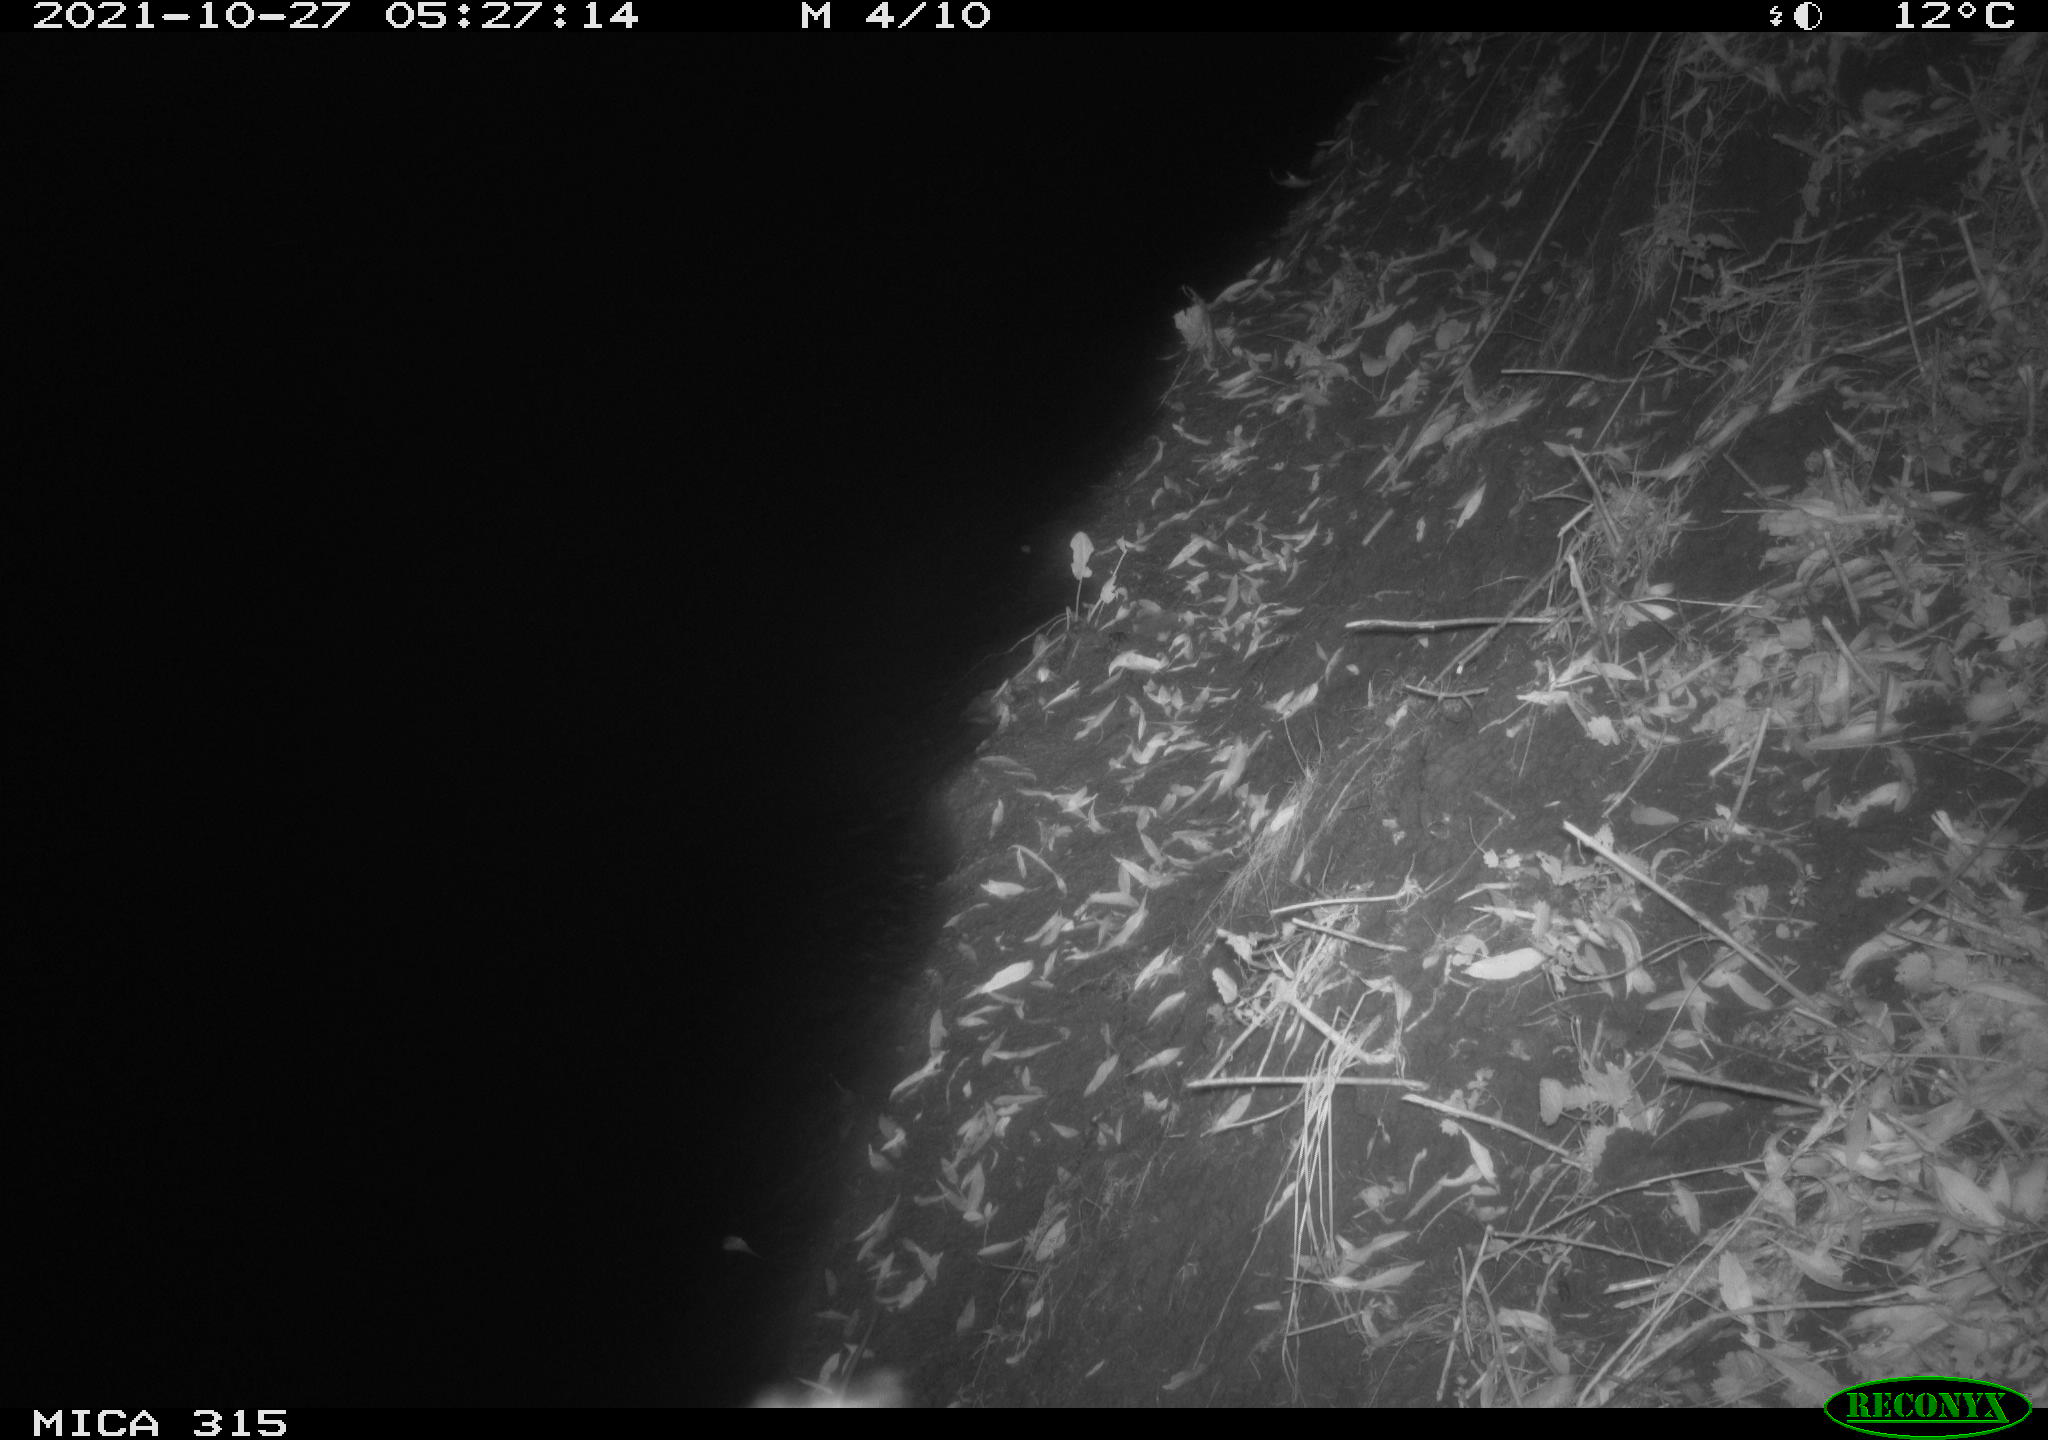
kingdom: Animalia
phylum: Chordata
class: Mammalia
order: Rodentia
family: Muridae
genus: Rattus
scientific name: Rattus norvegicus
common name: Brown rat
